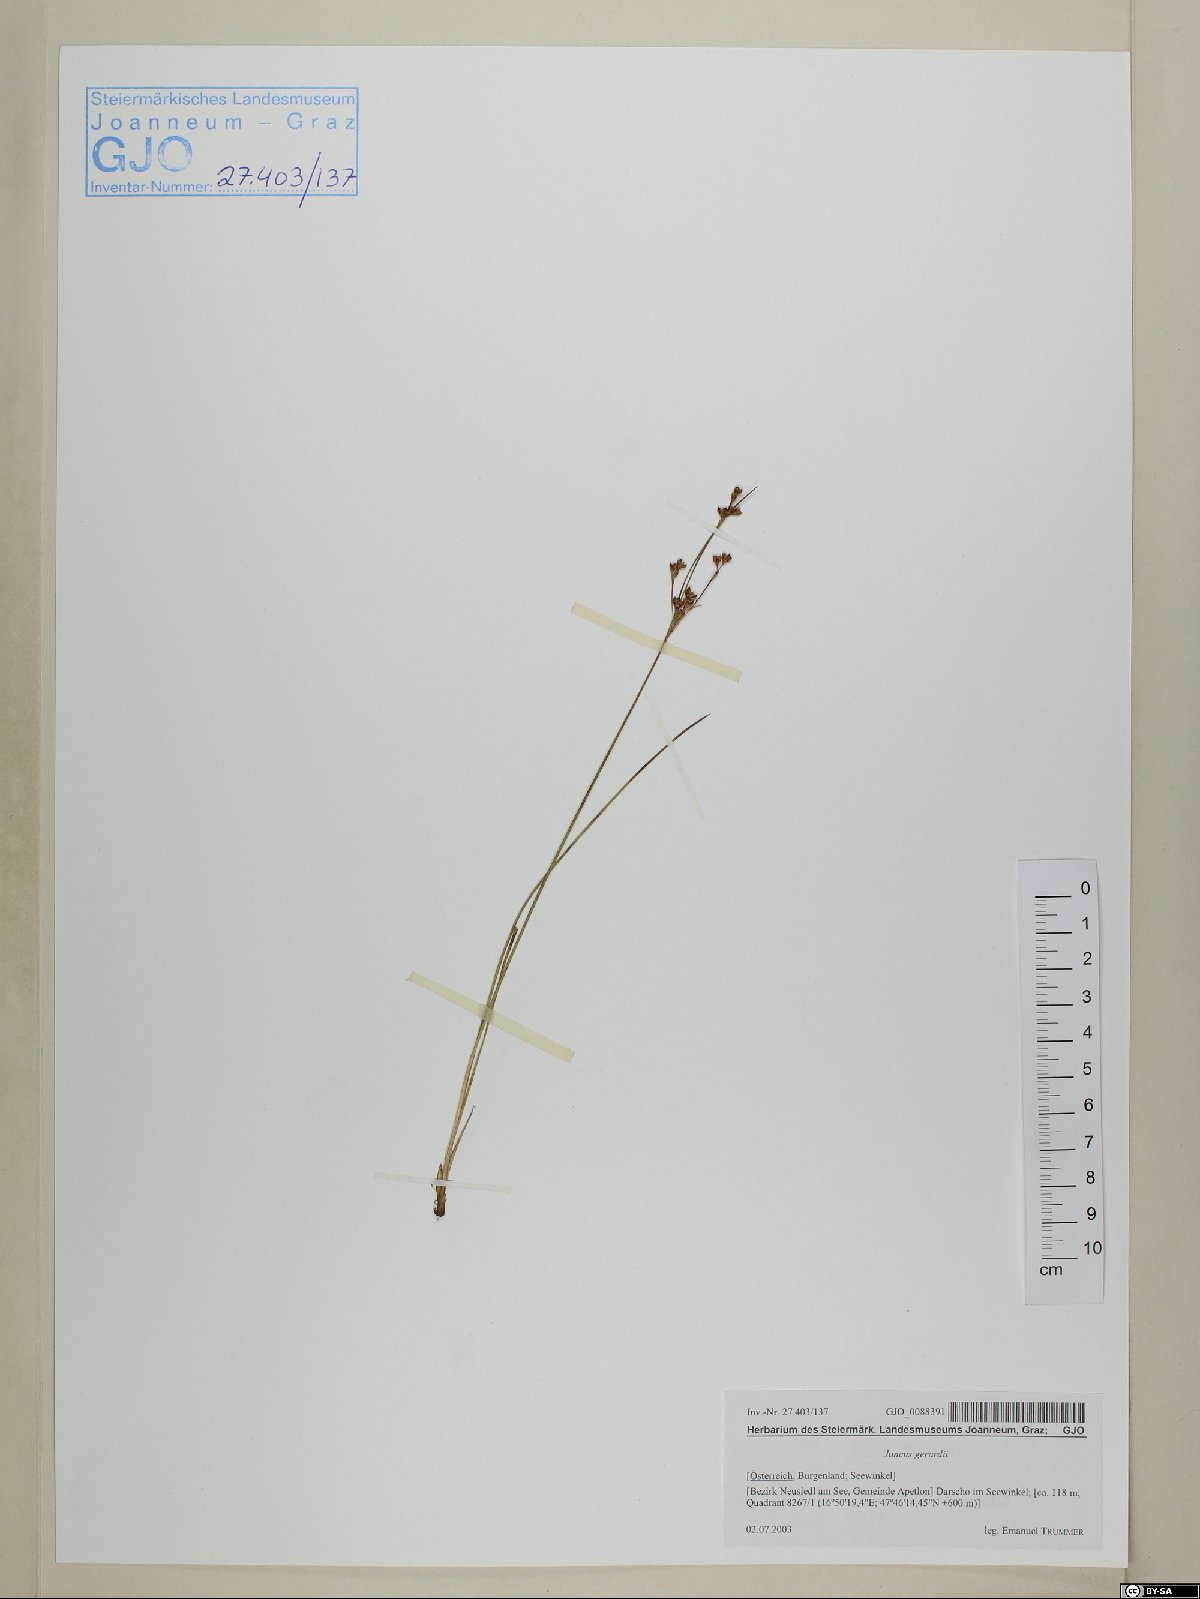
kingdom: Plantae
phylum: Tracheophyta
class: Liliopsida
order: Poales
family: Juncaceae
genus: Juncus
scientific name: Juncus gerardi
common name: Saltmarsh rush
